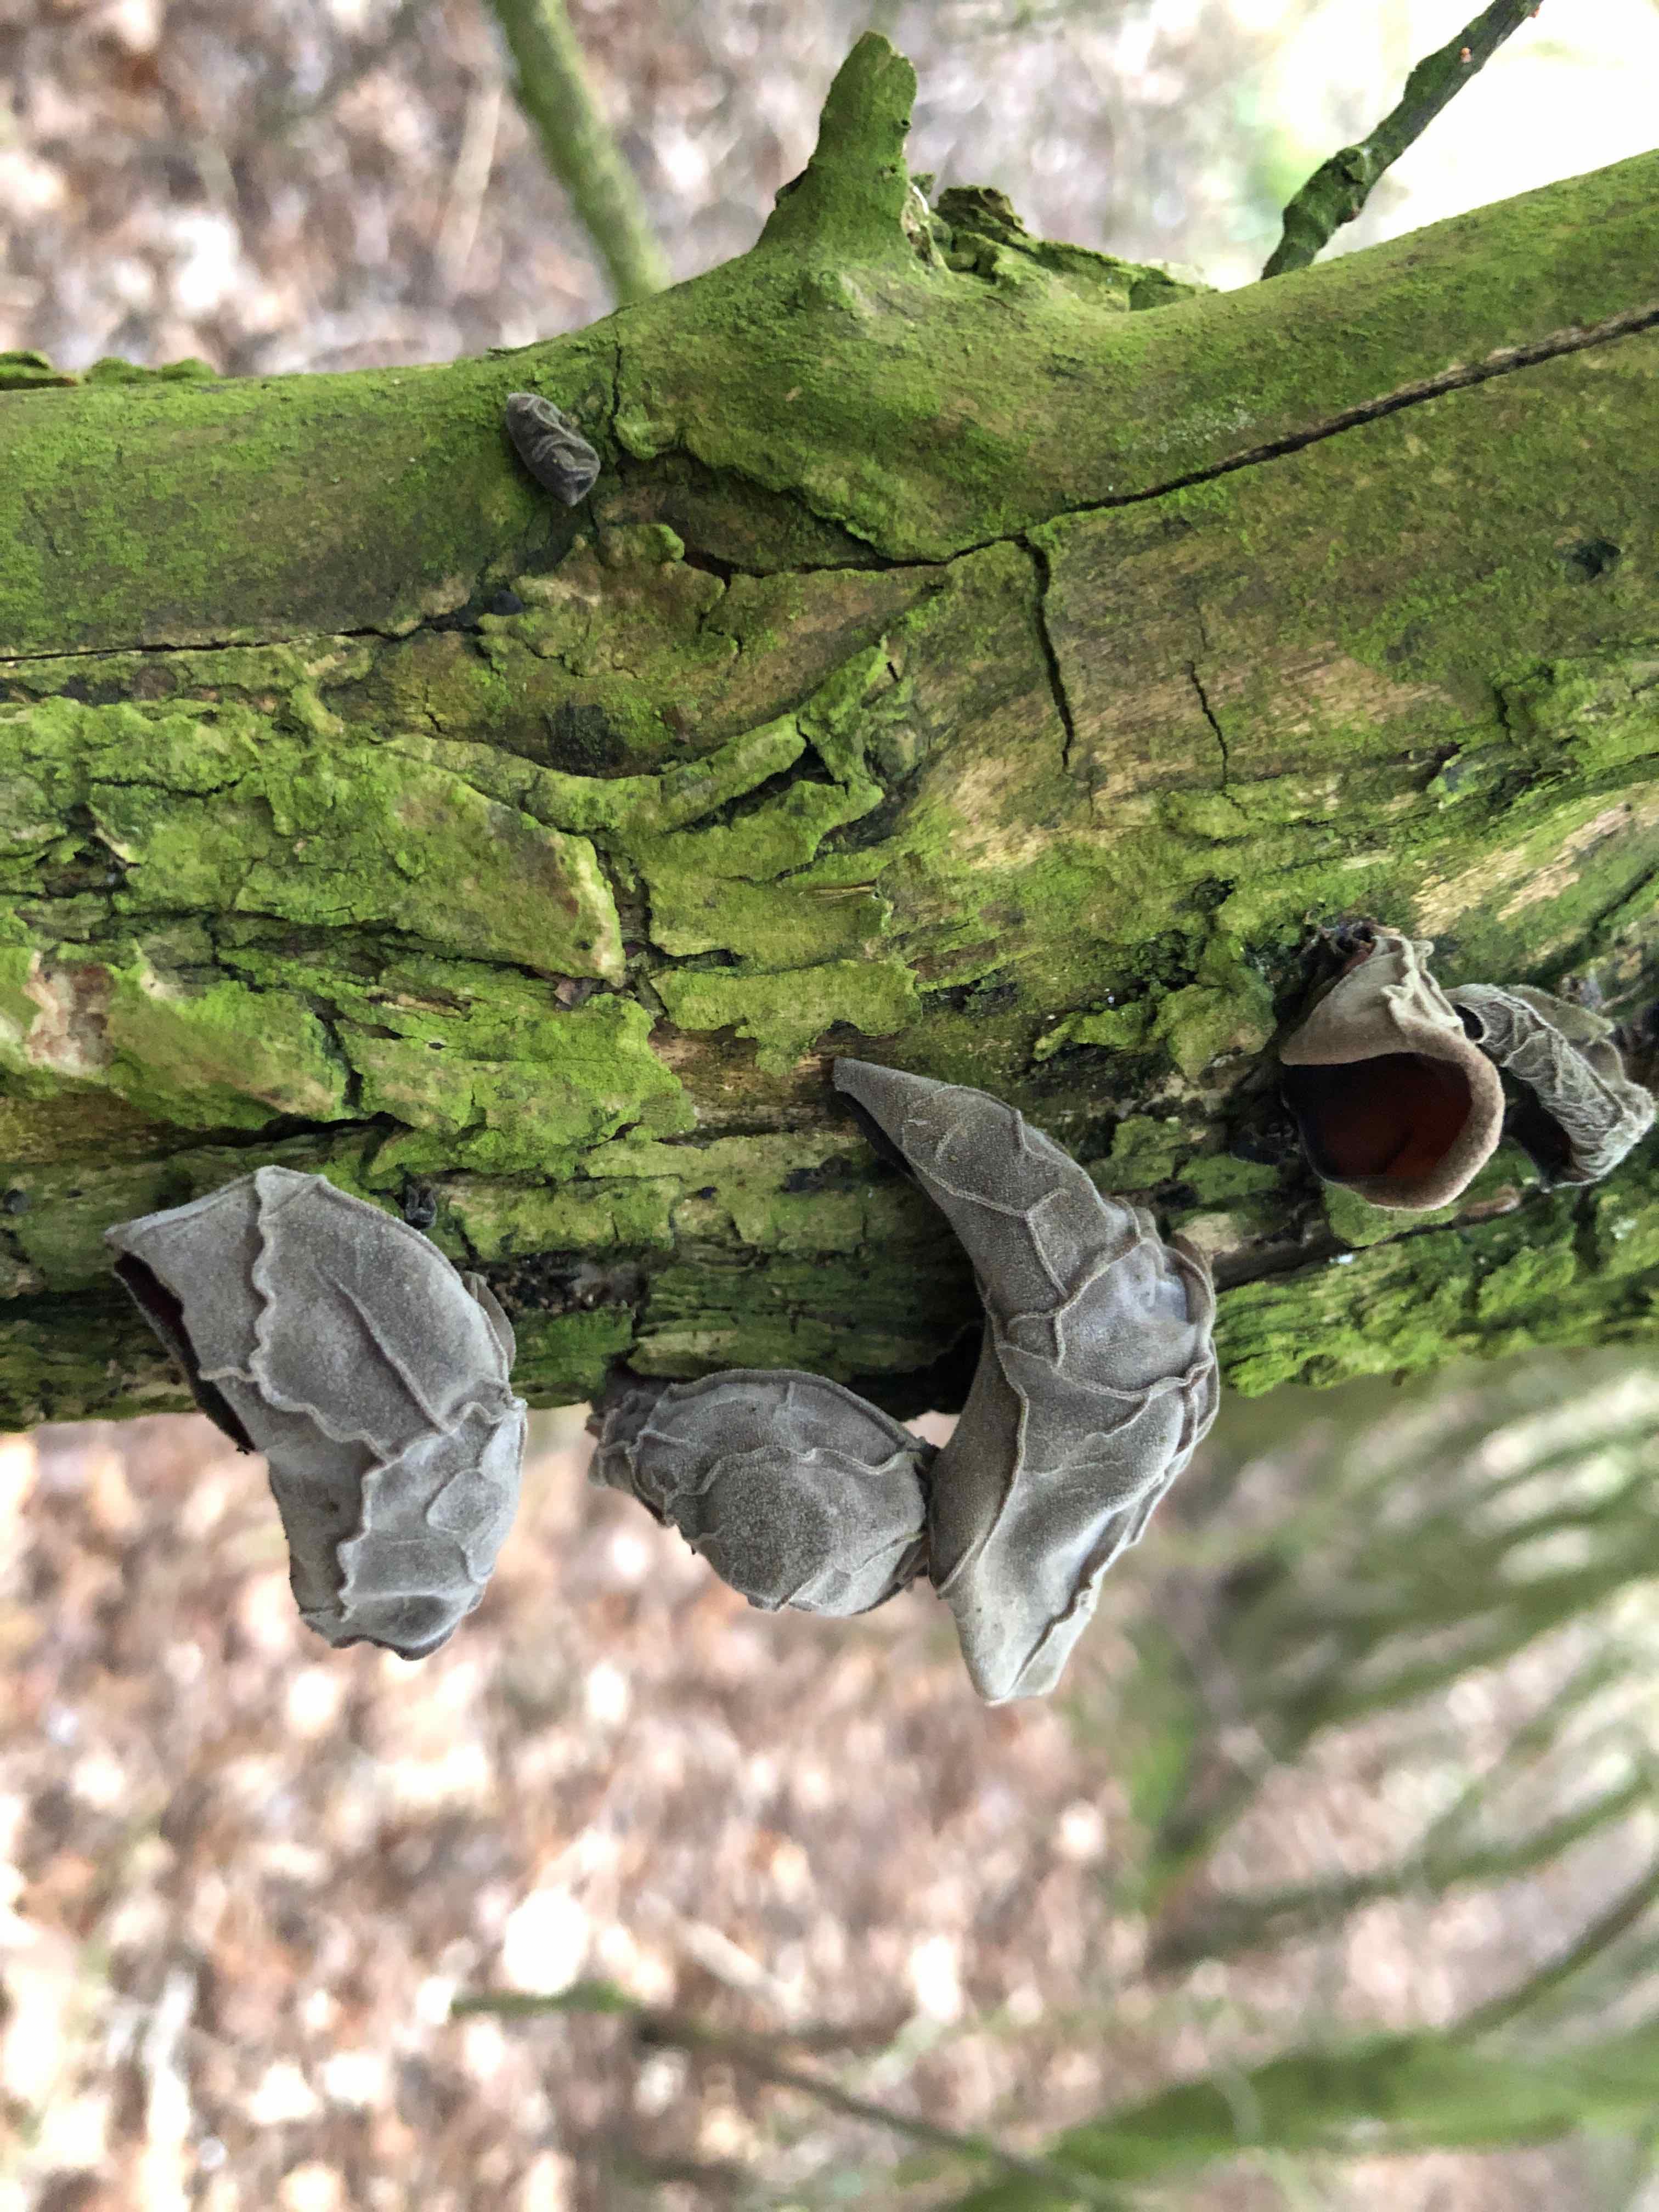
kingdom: Fungi
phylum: Basidiomycota
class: Agaricomycetes
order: Auriculariales
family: Auriculariaceae
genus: Auricularia
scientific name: Auricularia auricula-judae
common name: almindelig judasøre
